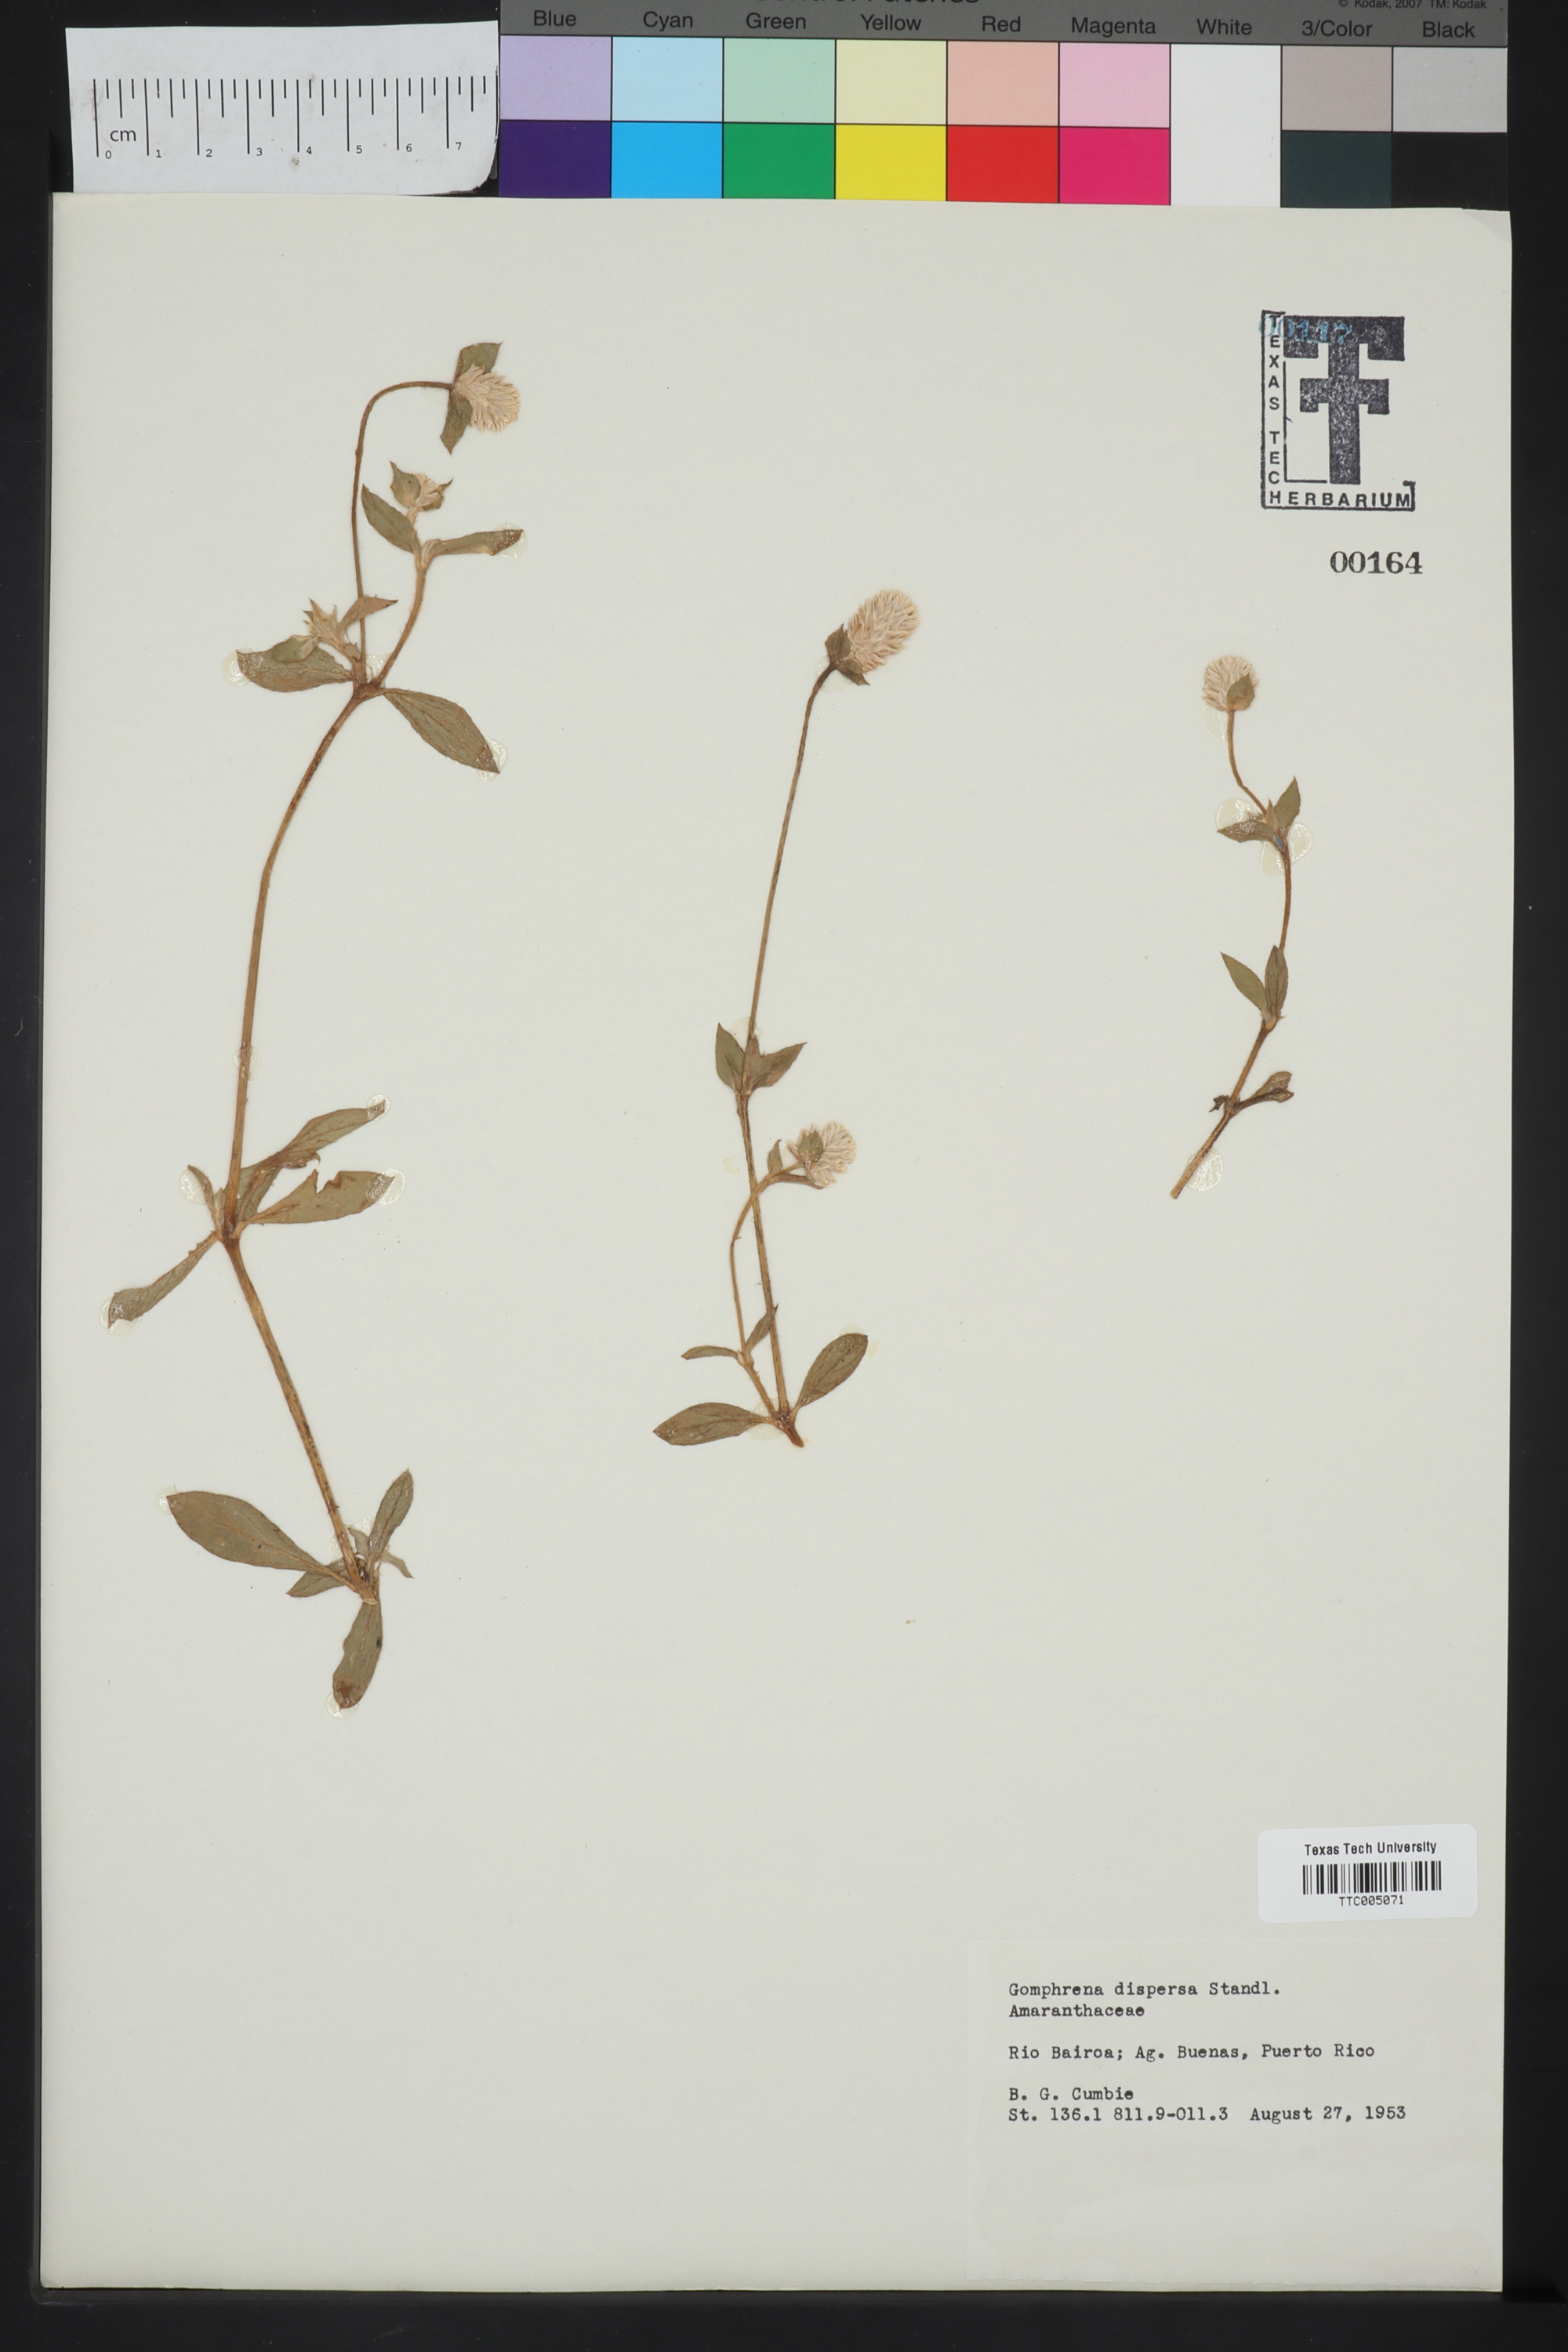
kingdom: Plantae
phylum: Tracheophyta
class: Magnoliopsida
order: Caryophyllales
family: Amaranthaceae
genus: Gomphrena
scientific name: Gomphrena serrata
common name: Arrasa con todo
